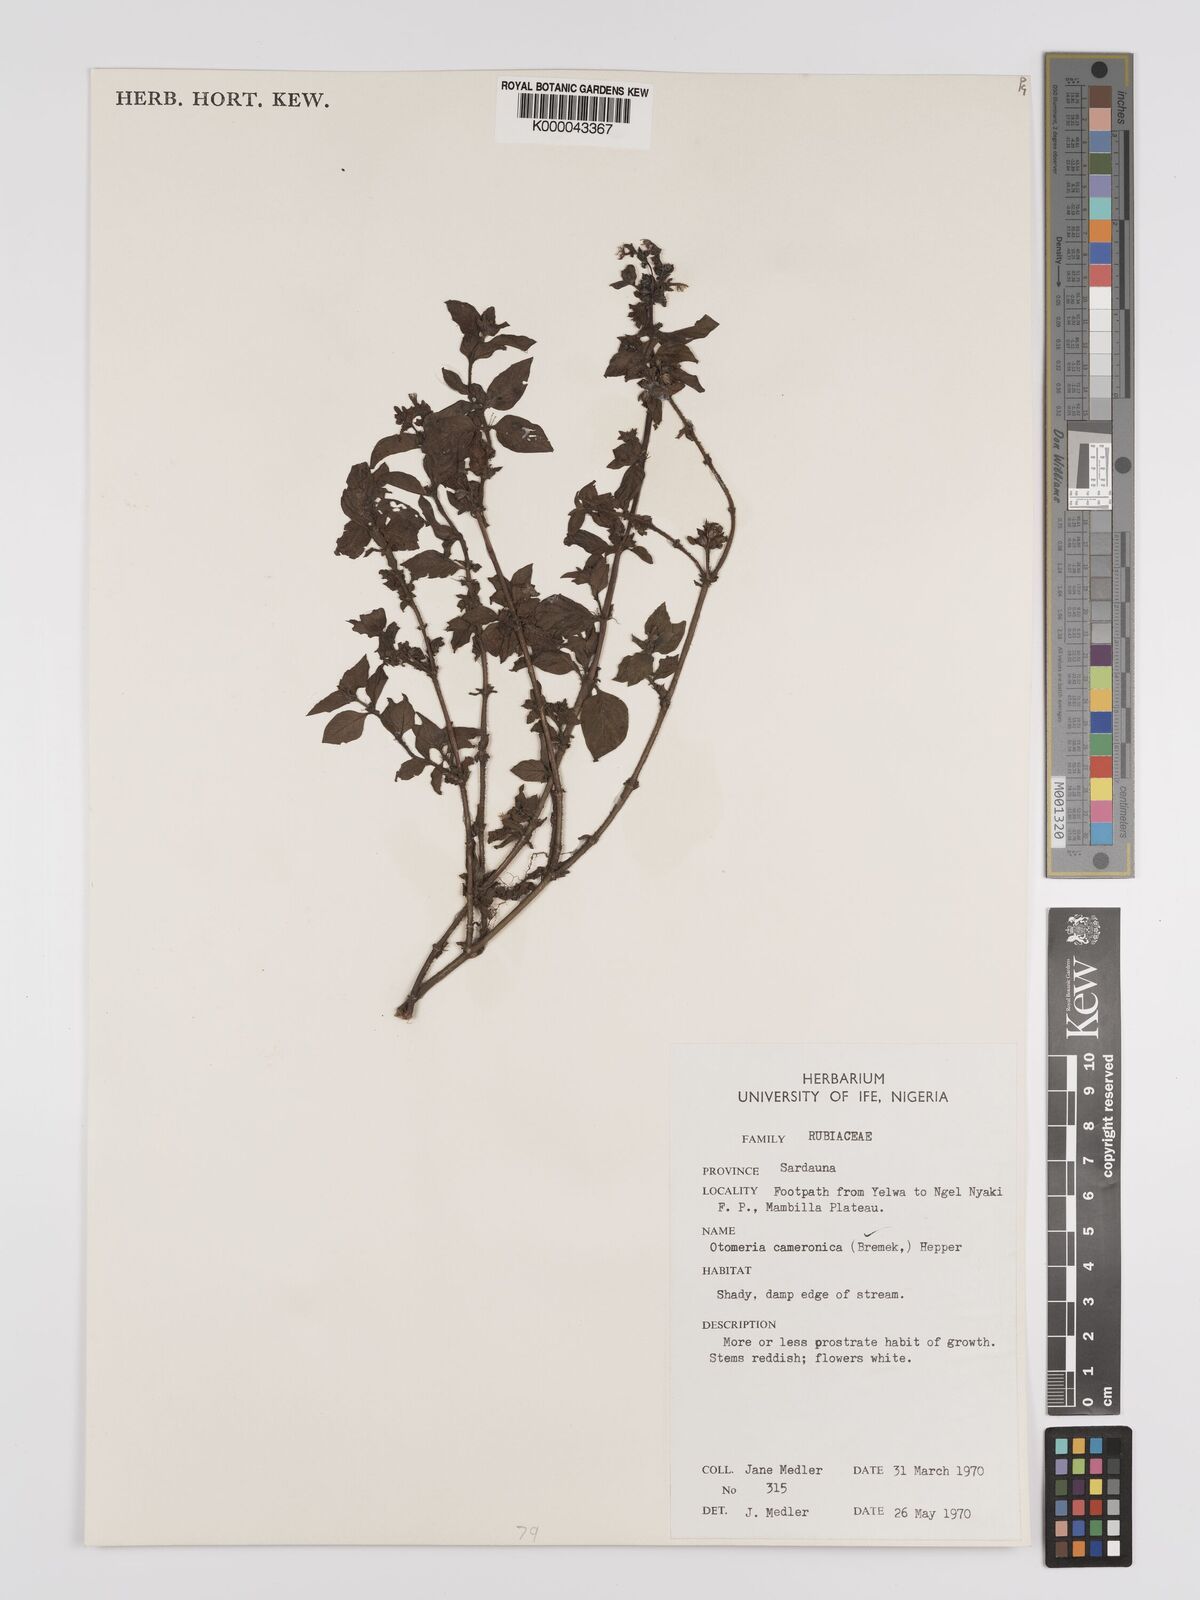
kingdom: Plantae
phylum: Tracheophyta
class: Magnoliopsida
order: Gentianales
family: Rubiaceae
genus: Otomeria
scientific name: Otomeria cameronica
